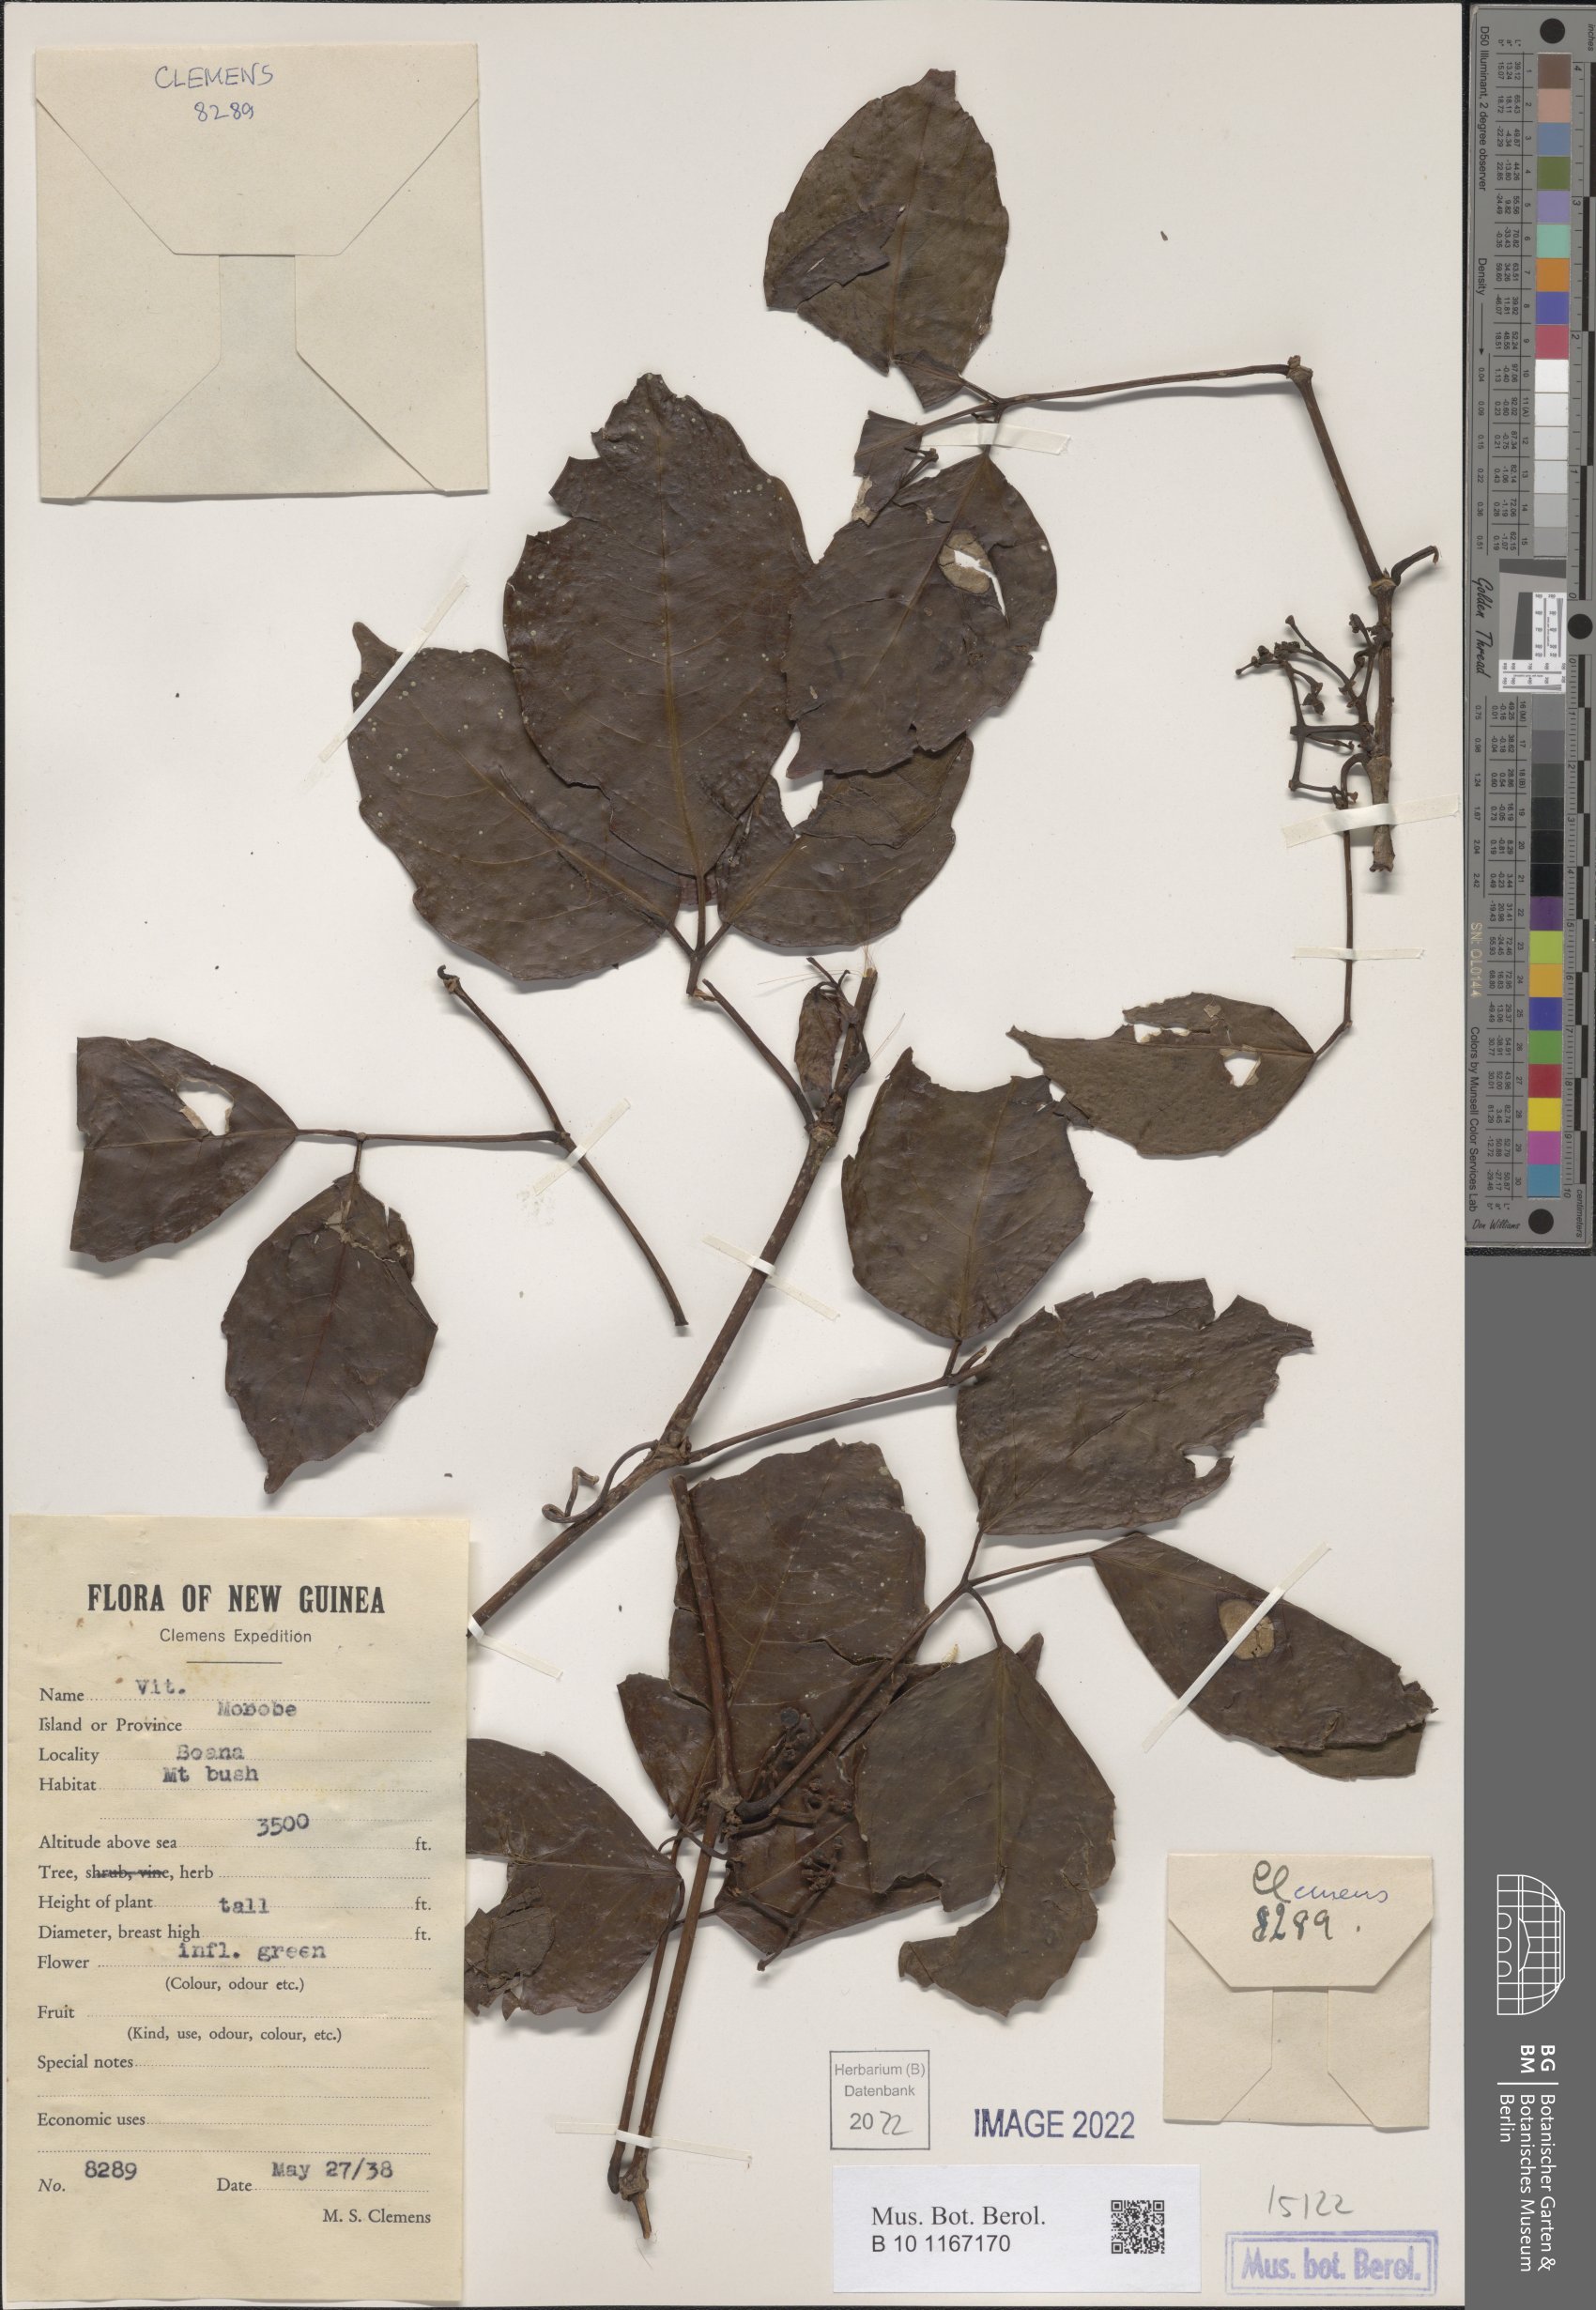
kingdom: Plantae
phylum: Tracheophyta
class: Magnoliopsida
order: Vitales
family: Vitaceae
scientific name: Vitaceae
